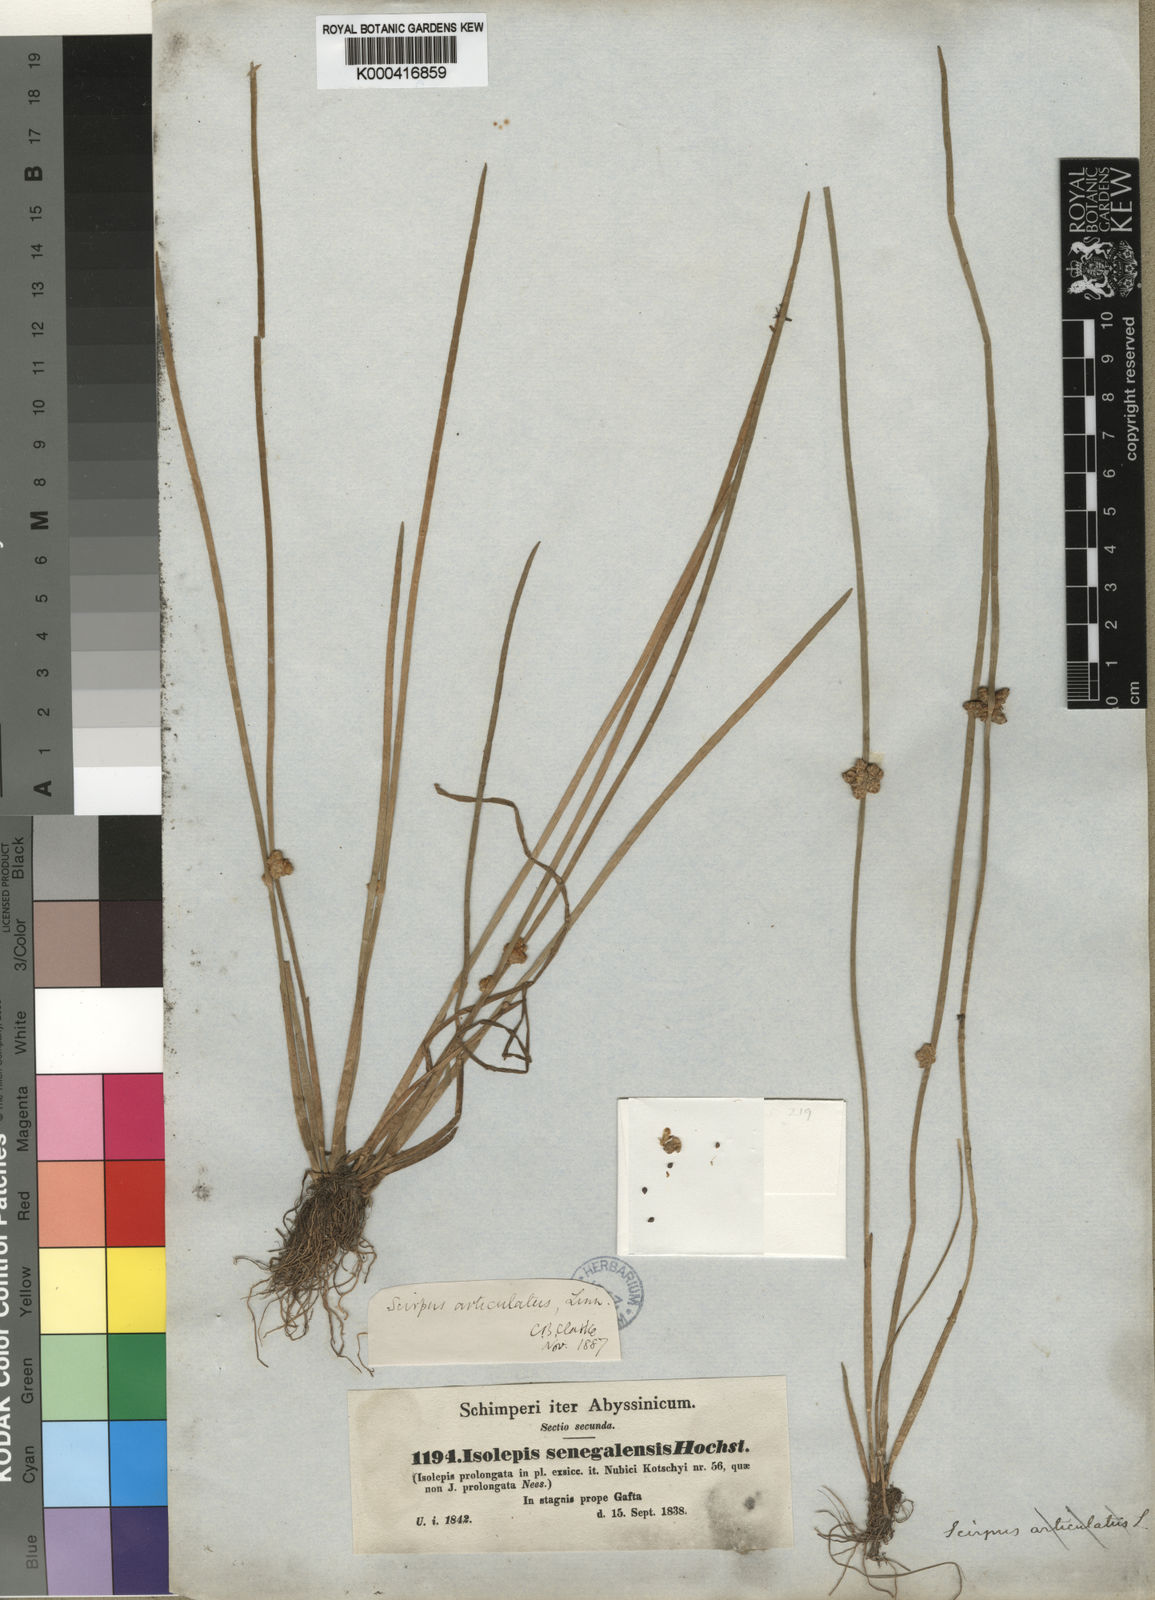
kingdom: Plantae
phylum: Tracheophyta
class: Liliopsida
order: Poales
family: Cyperaceae
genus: Schoenoplectiella
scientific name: Schoenoplectiella senegalensis
